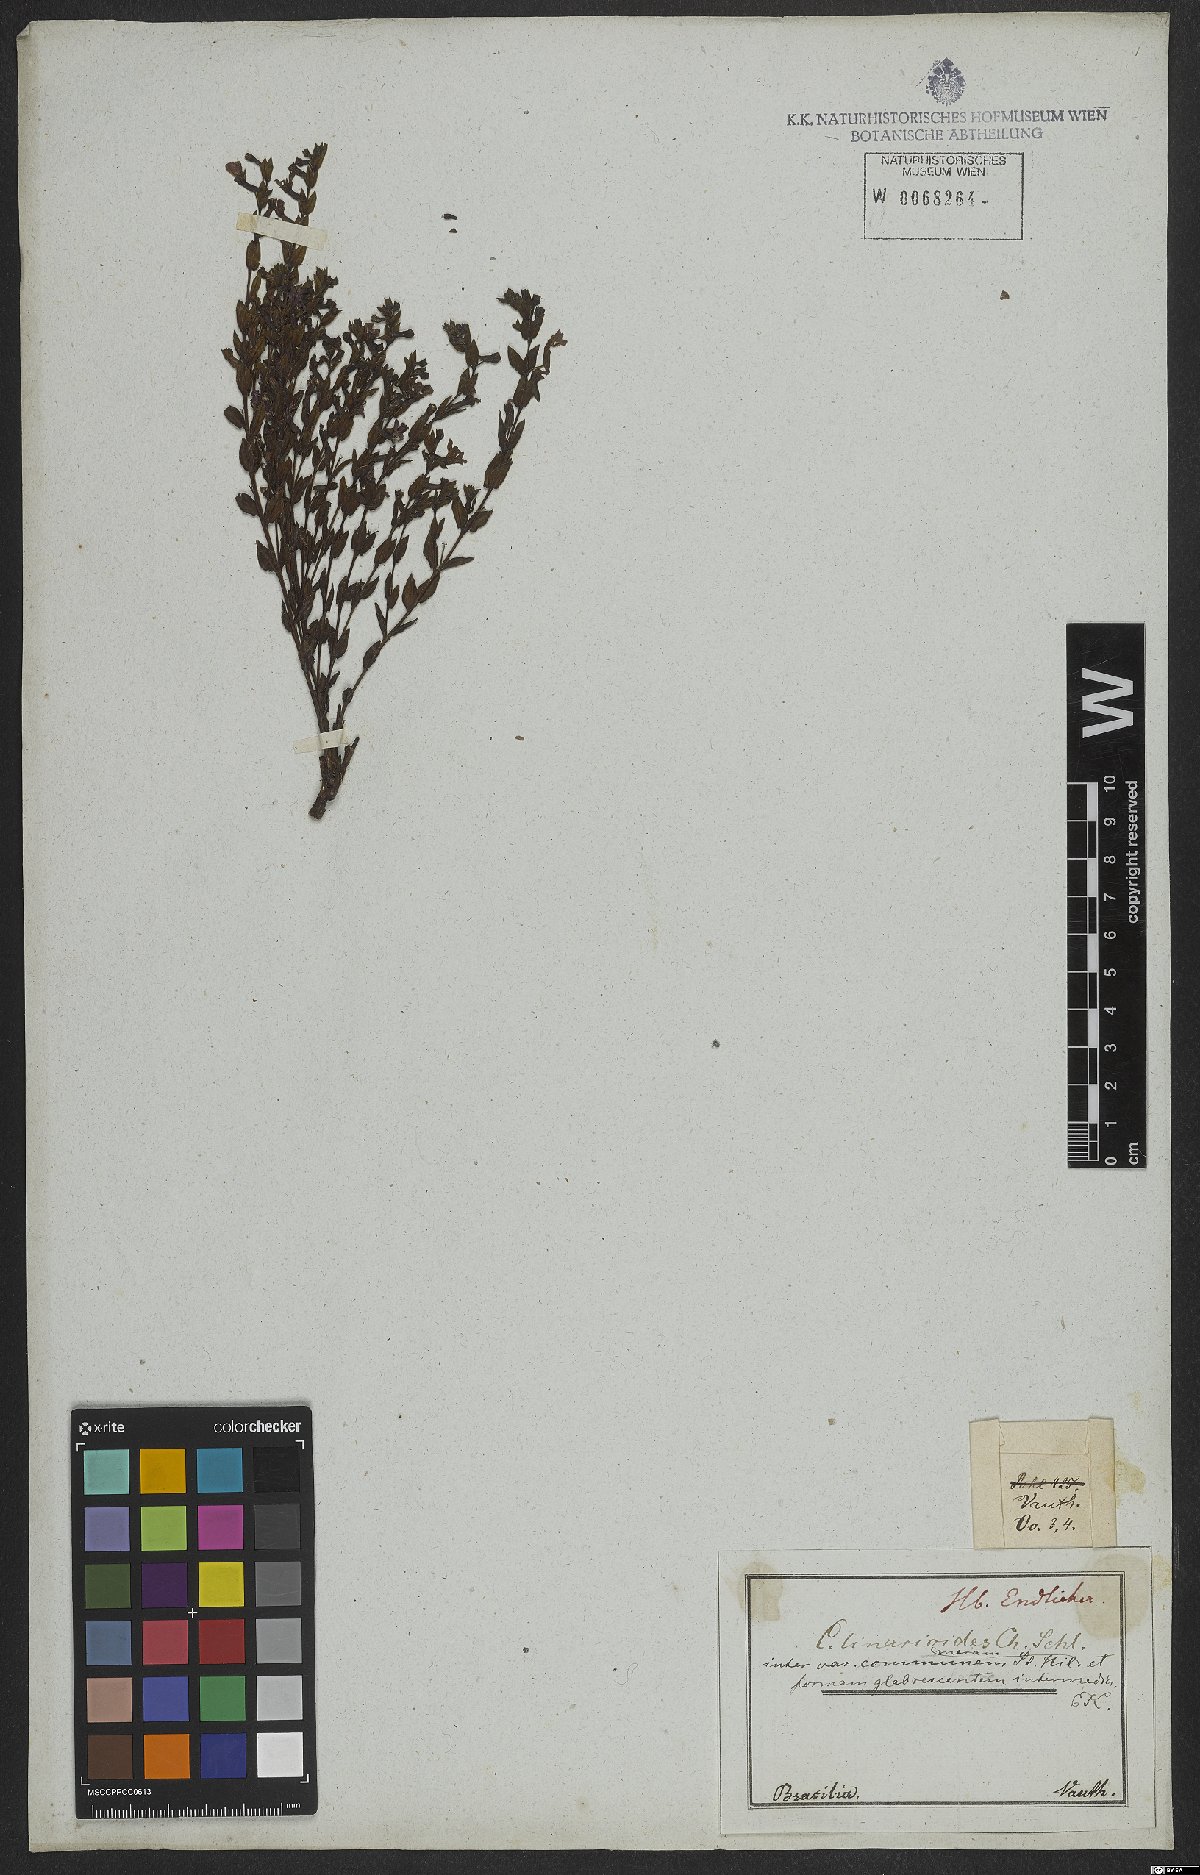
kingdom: Plantae
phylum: Tracheophyta
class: Magnoliopsida
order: Myrtales
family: Lythraceae
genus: Cuphea
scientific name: Cuphea linarioides
